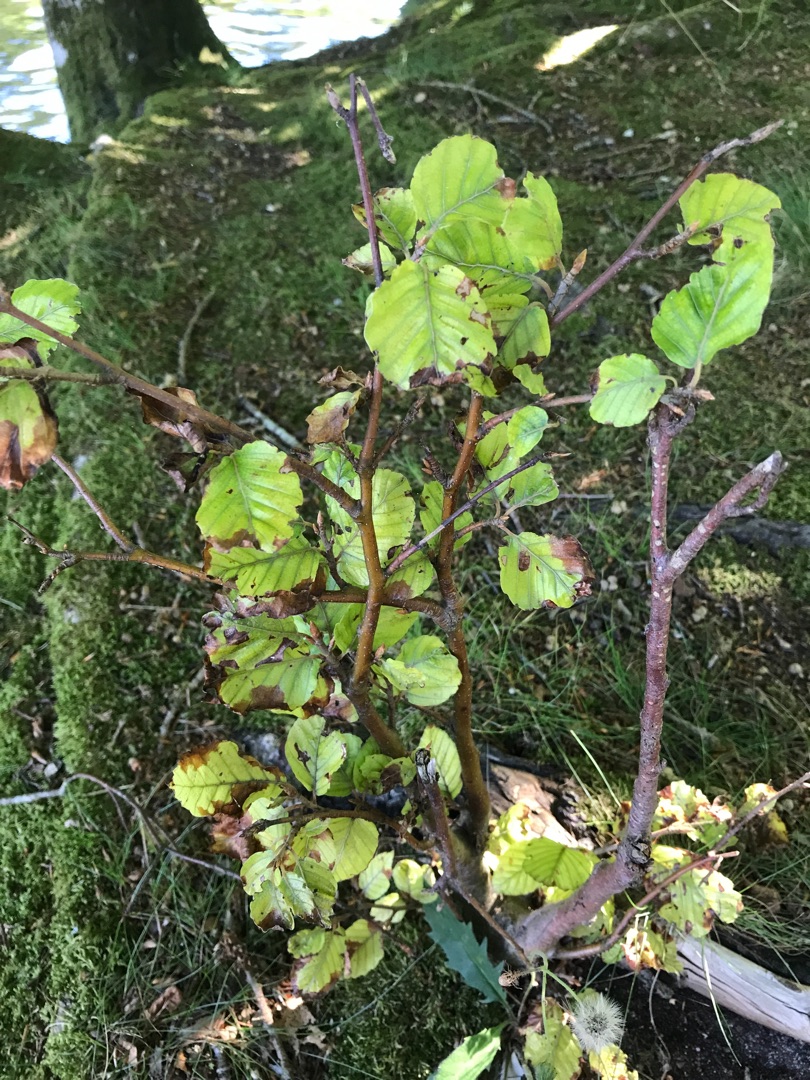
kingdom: Plantae
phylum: Tracheophyta
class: Magnoliopsida
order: Fagales
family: Betulaceae
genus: Alnus
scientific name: Alnus glutinosa
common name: Rød-el
